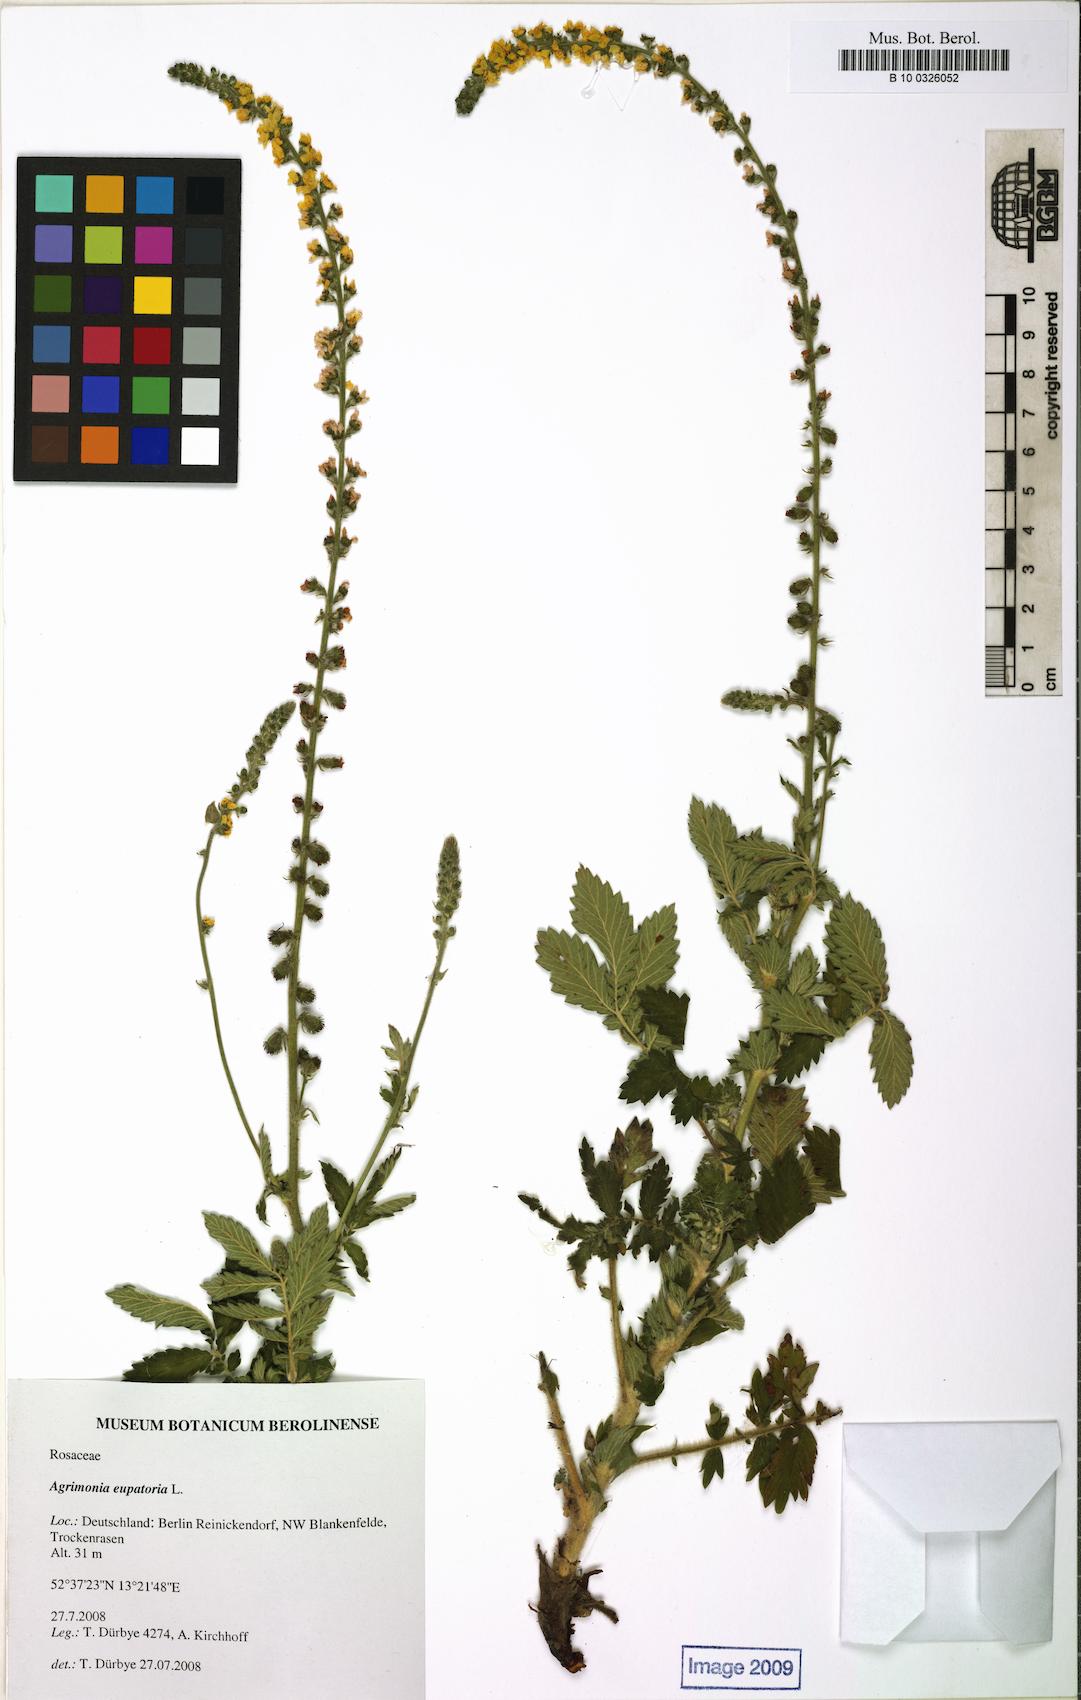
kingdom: Plantae
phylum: Tracheophyta
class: Magnoliopsida
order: Rosales
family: Rosaceae
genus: Agrimonia
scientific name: Agrimonia eupatoria
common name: Agrimony
